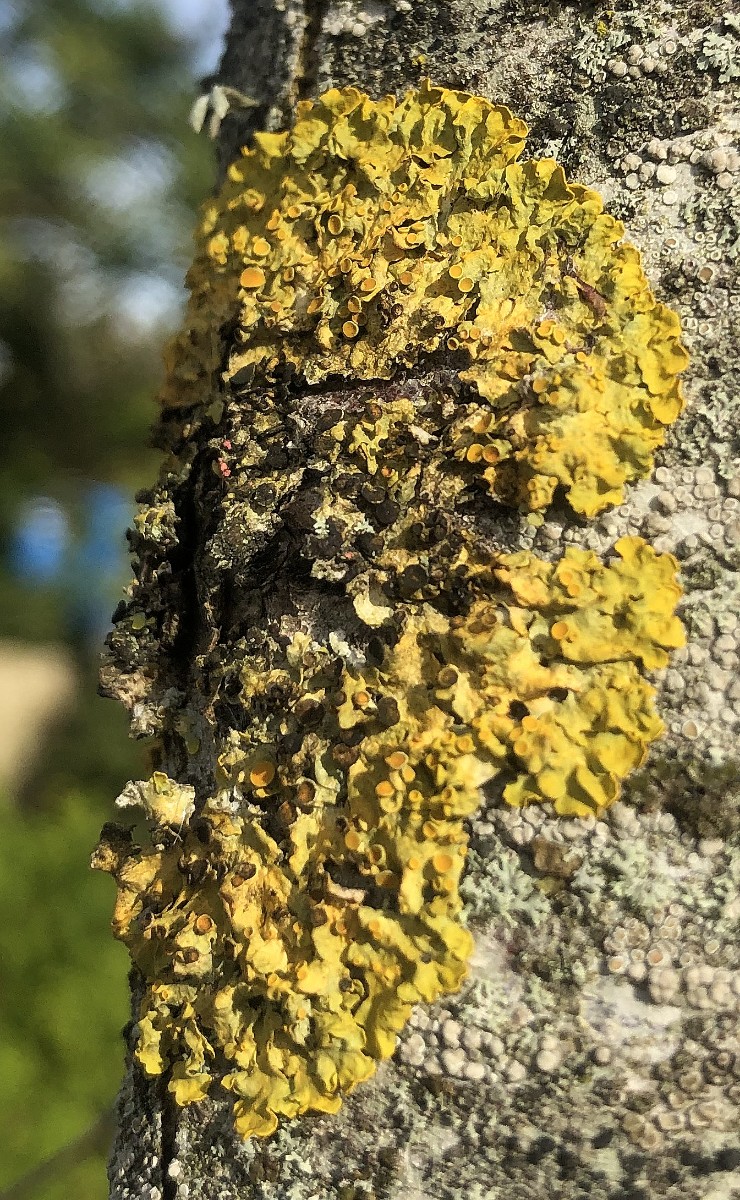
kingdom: Fungi
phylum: Ascomycota
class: Lecanoromycetes
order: Teloschistales
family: Teloschistaceae
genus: Xanthoria
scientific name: Xanthoria parietina
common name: almindelig væggelav
